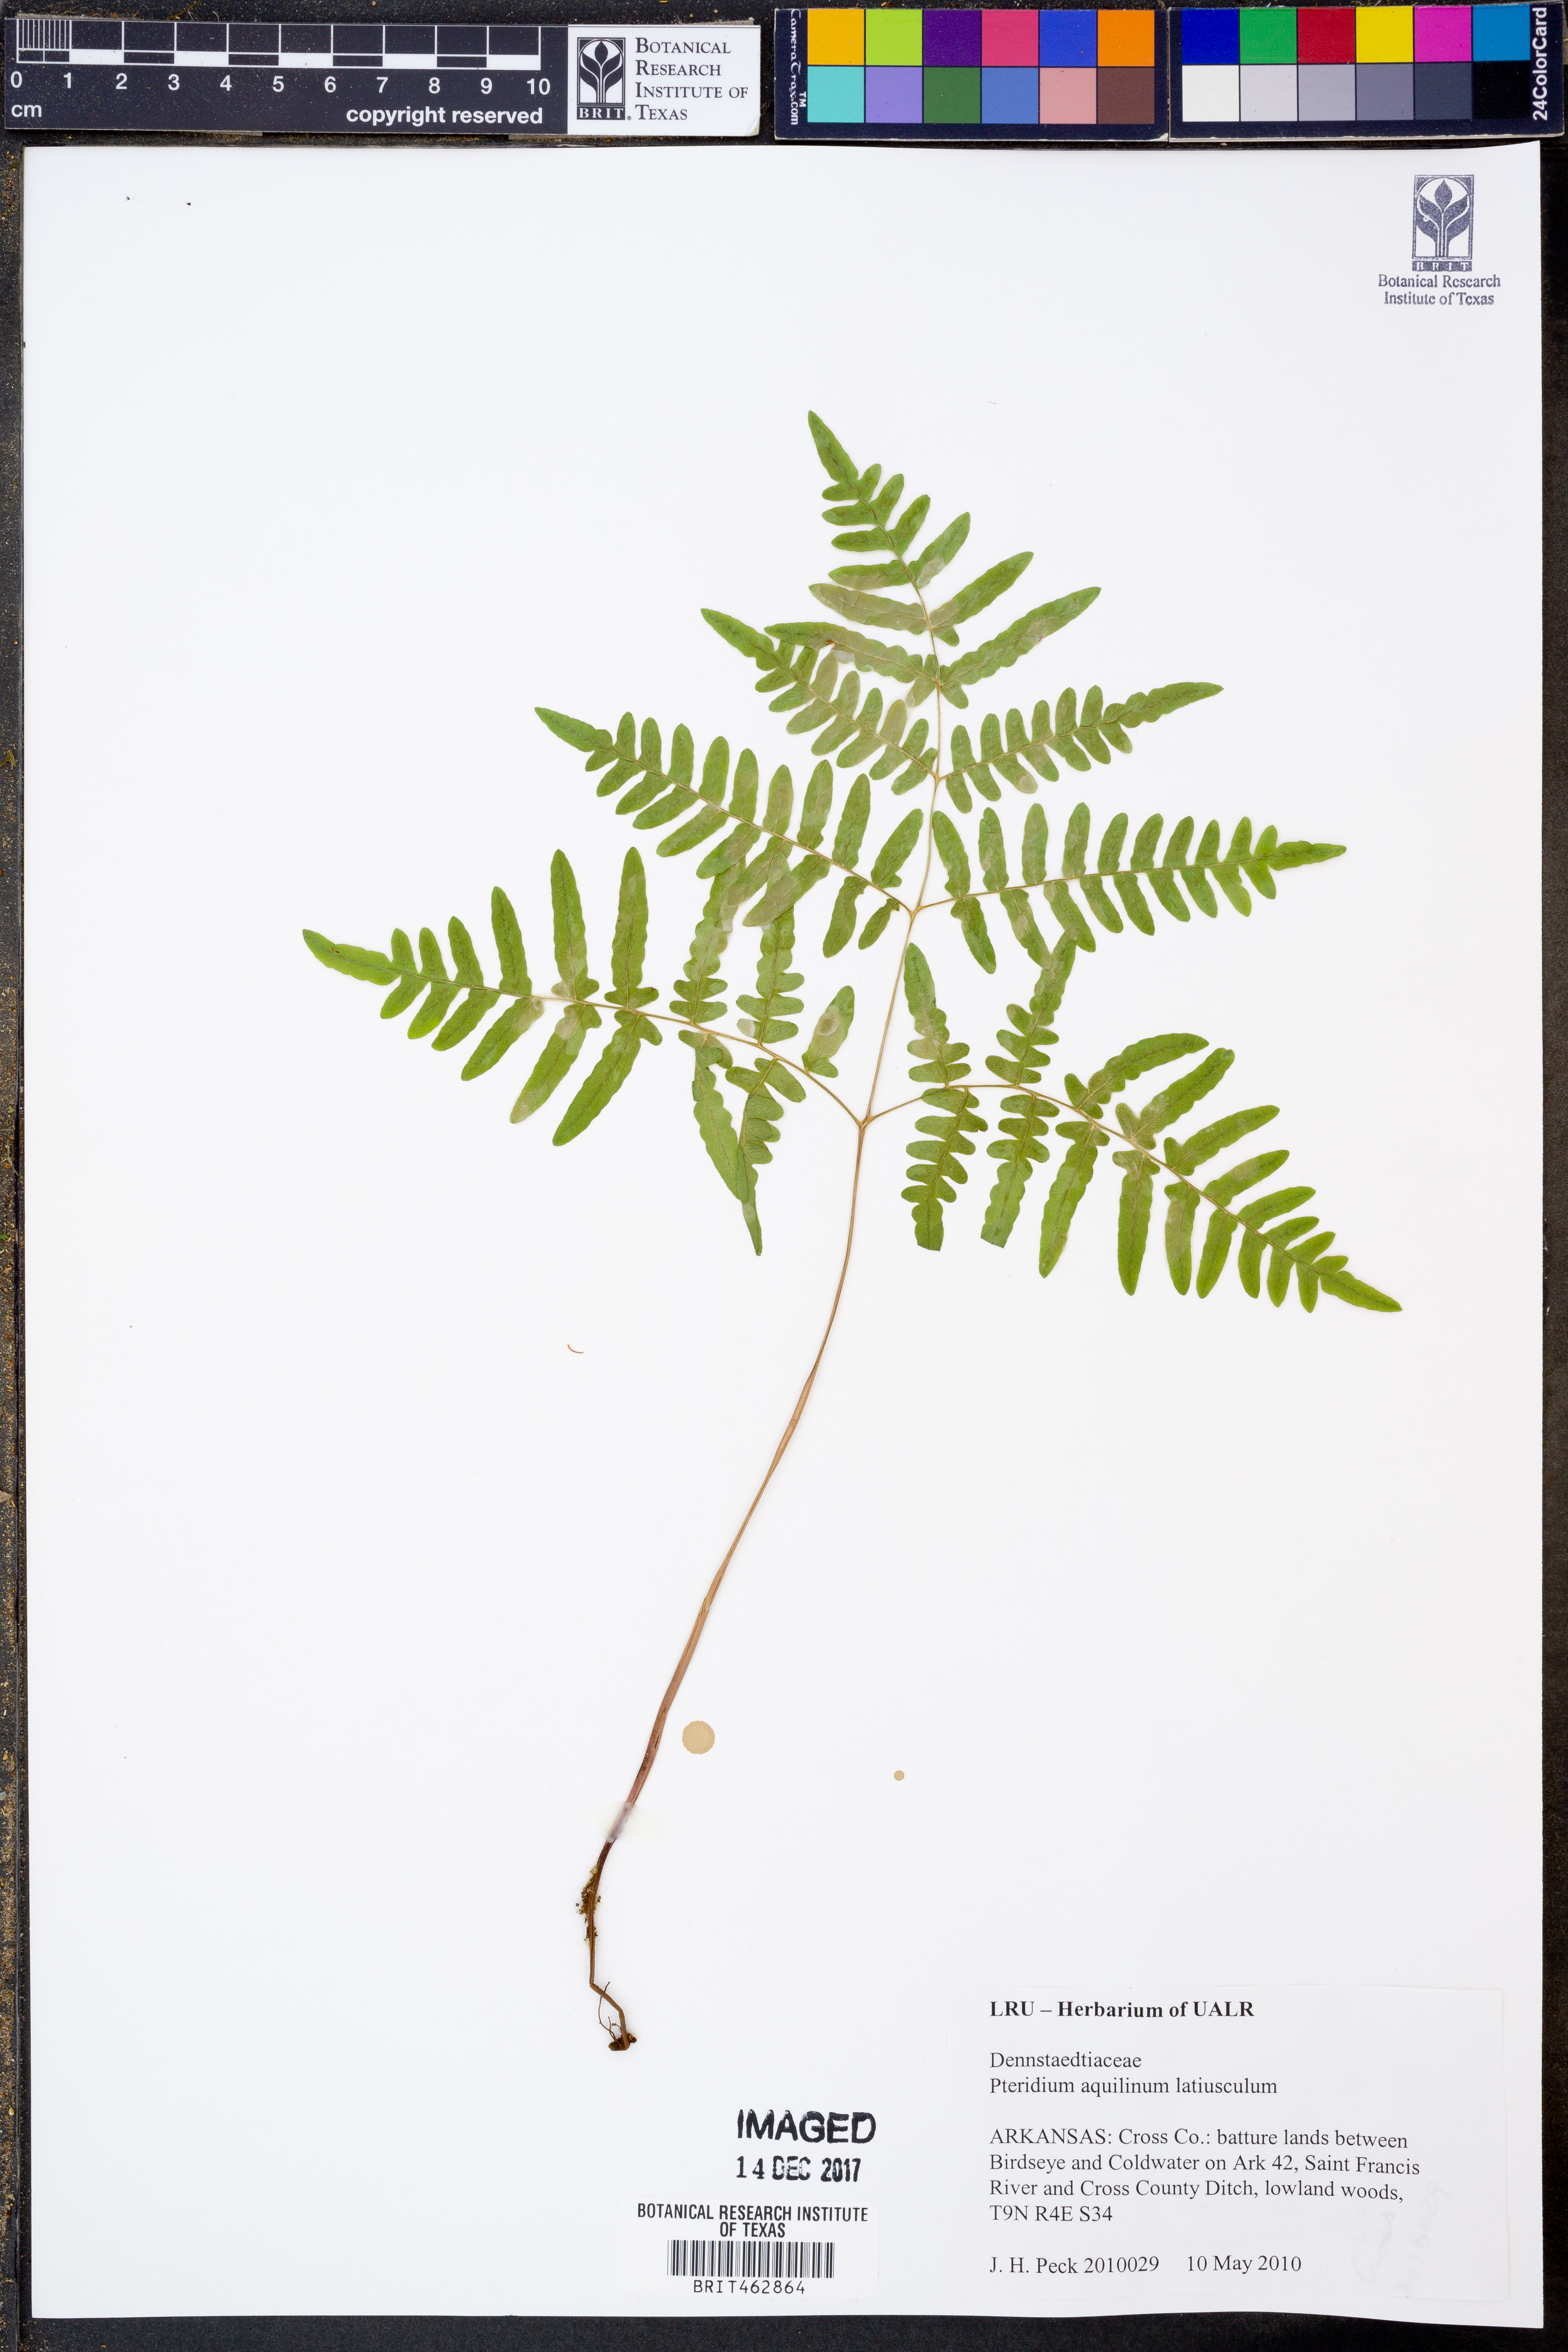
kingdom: Plantae
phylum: Tracheophyta
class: Polypodiopsida
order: Polypodiales
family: Dennstaedtiaceae
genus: Pteridium
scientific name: Pteridium aquilinum
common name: Bracken
